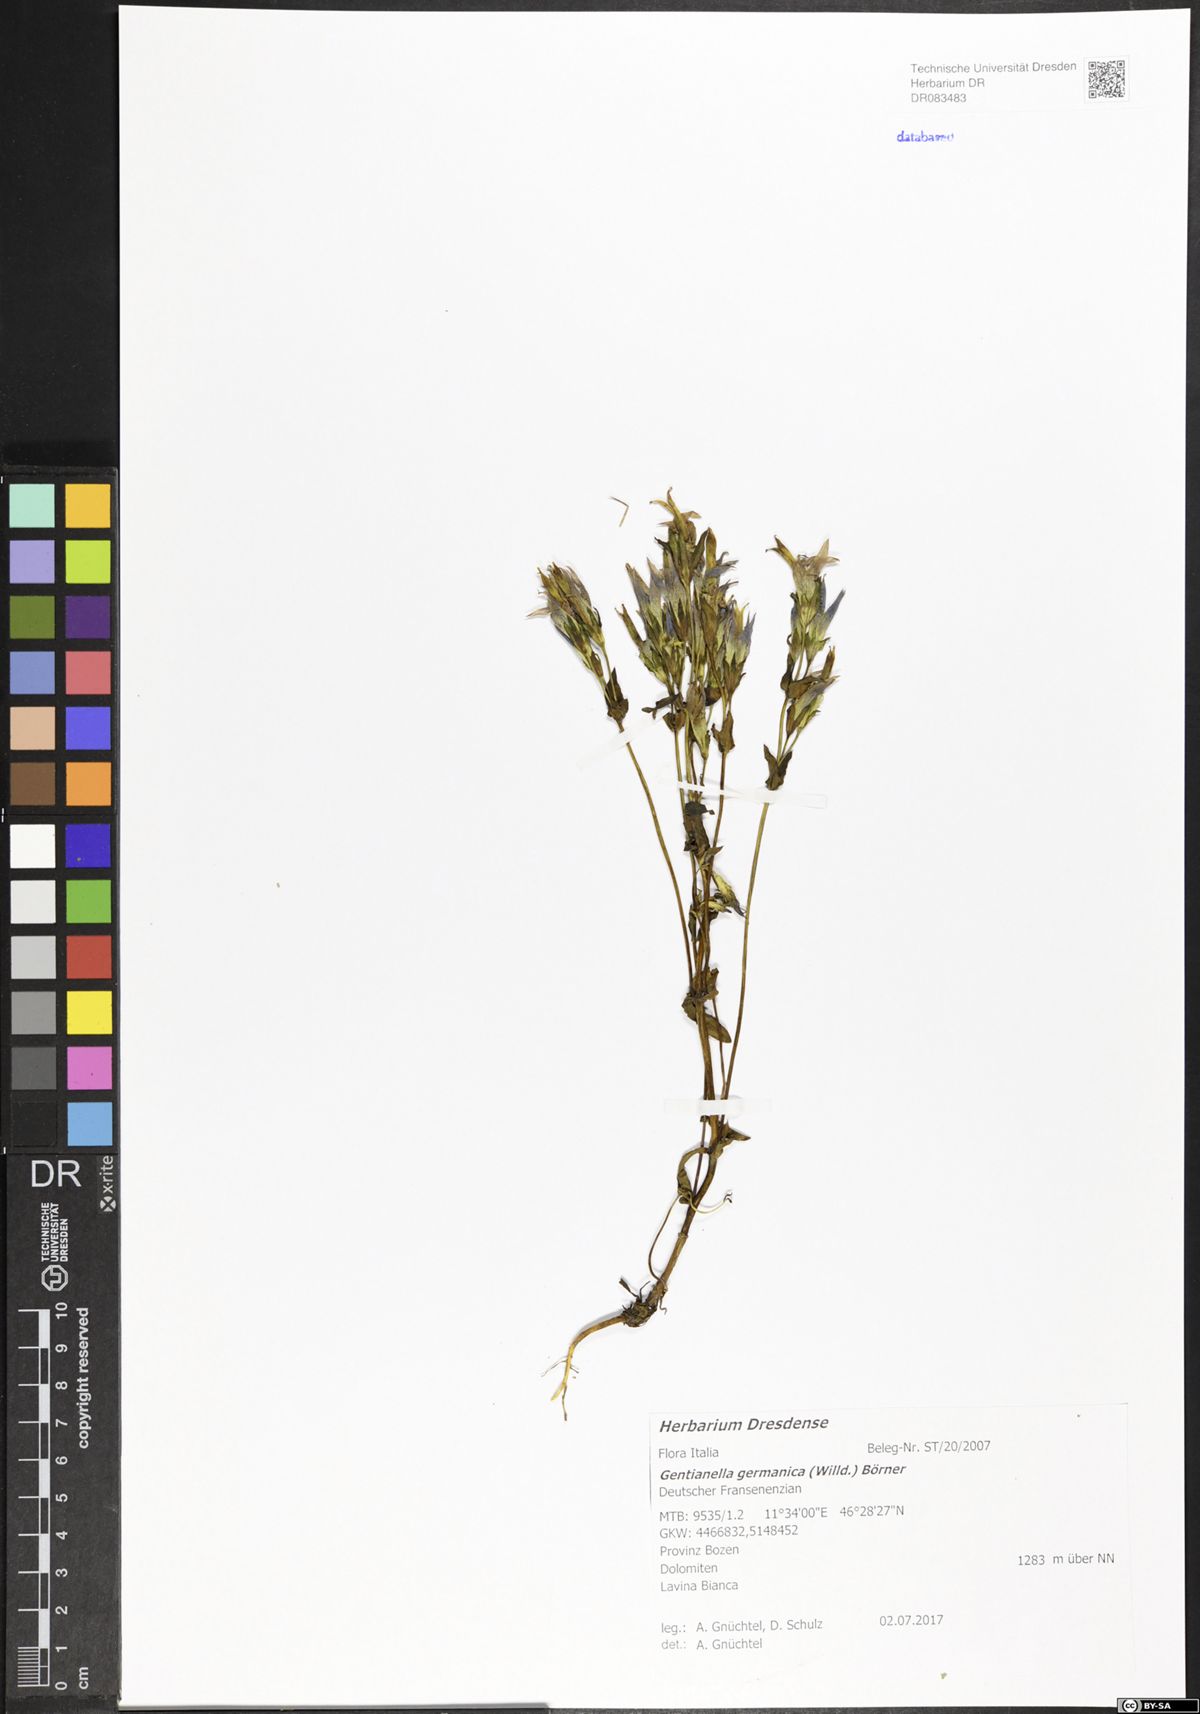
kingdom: Plantae
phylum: Tracheophyta
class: Magnoliopsida
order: Gentianales
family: Gentianaceae
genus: Gentianella
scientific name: Gentianella germanica
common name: Chiltern-gentian
